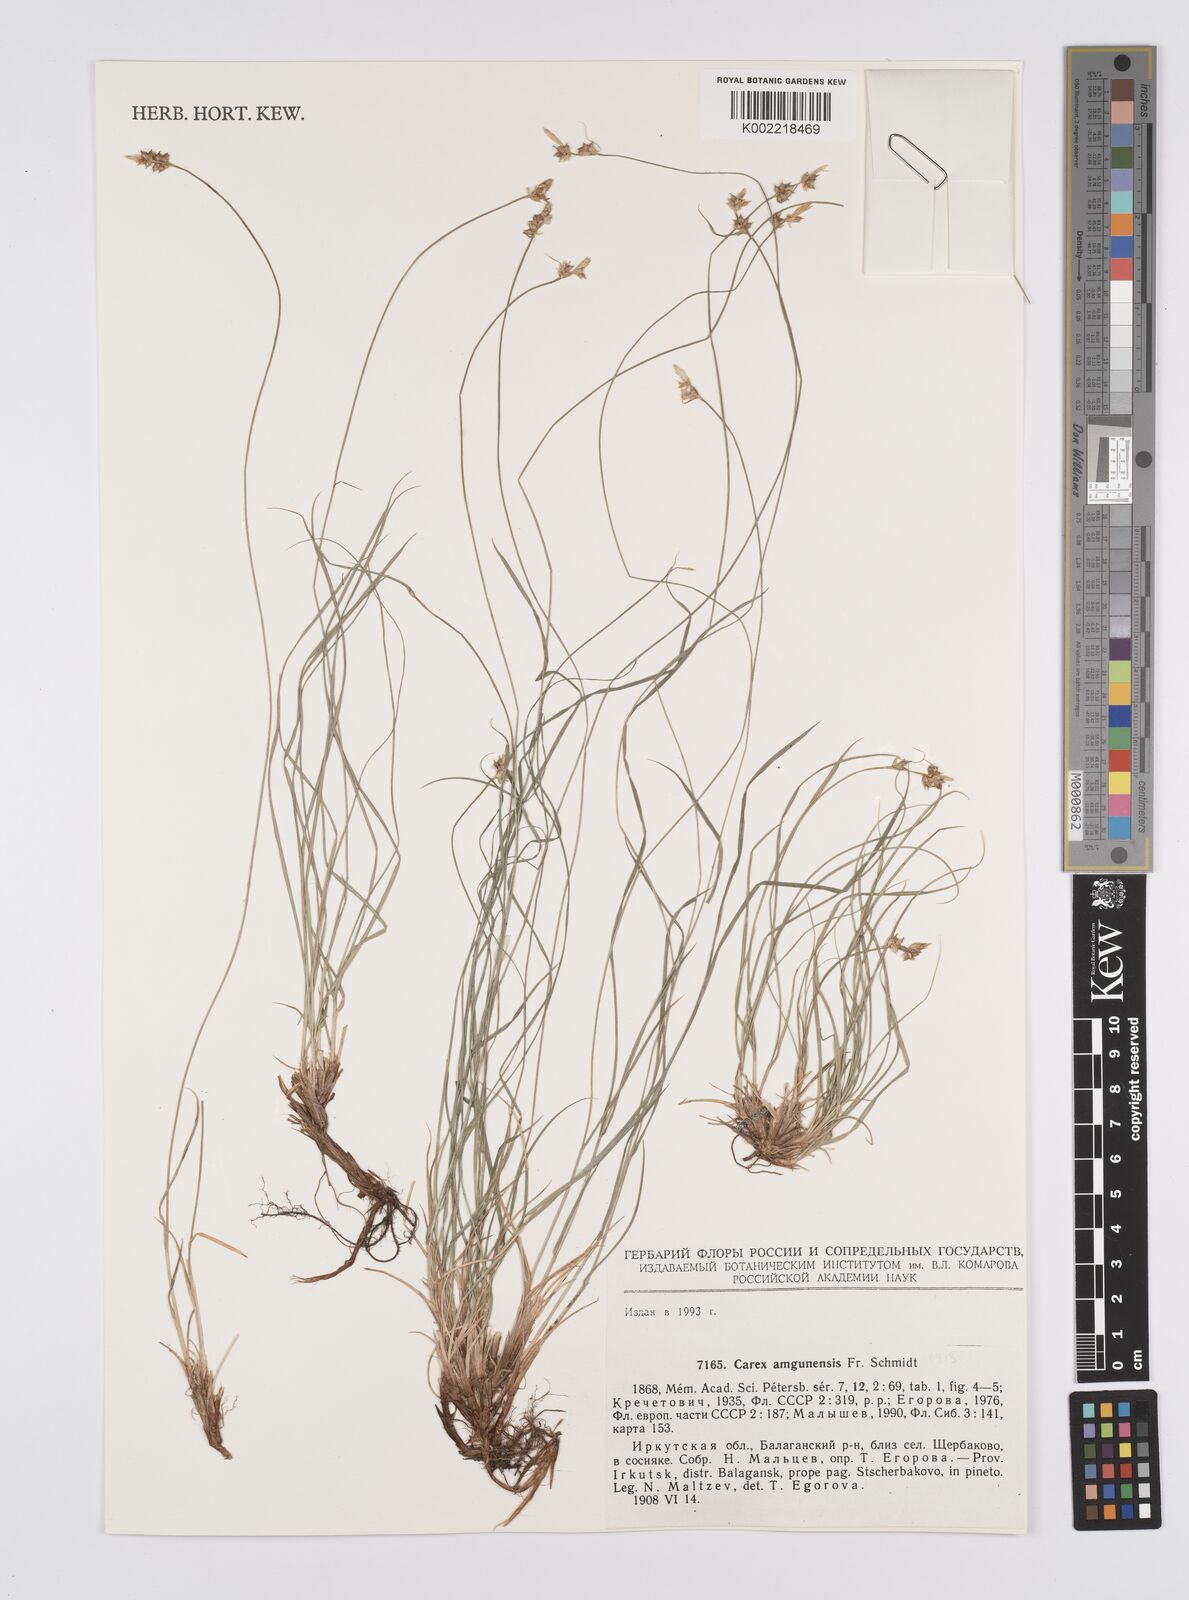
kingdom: Plantae
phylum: Tracheophyta
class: Liliopsida
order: Poales
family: Cyperaceae
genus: Carex
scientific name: Carex amgunensis
